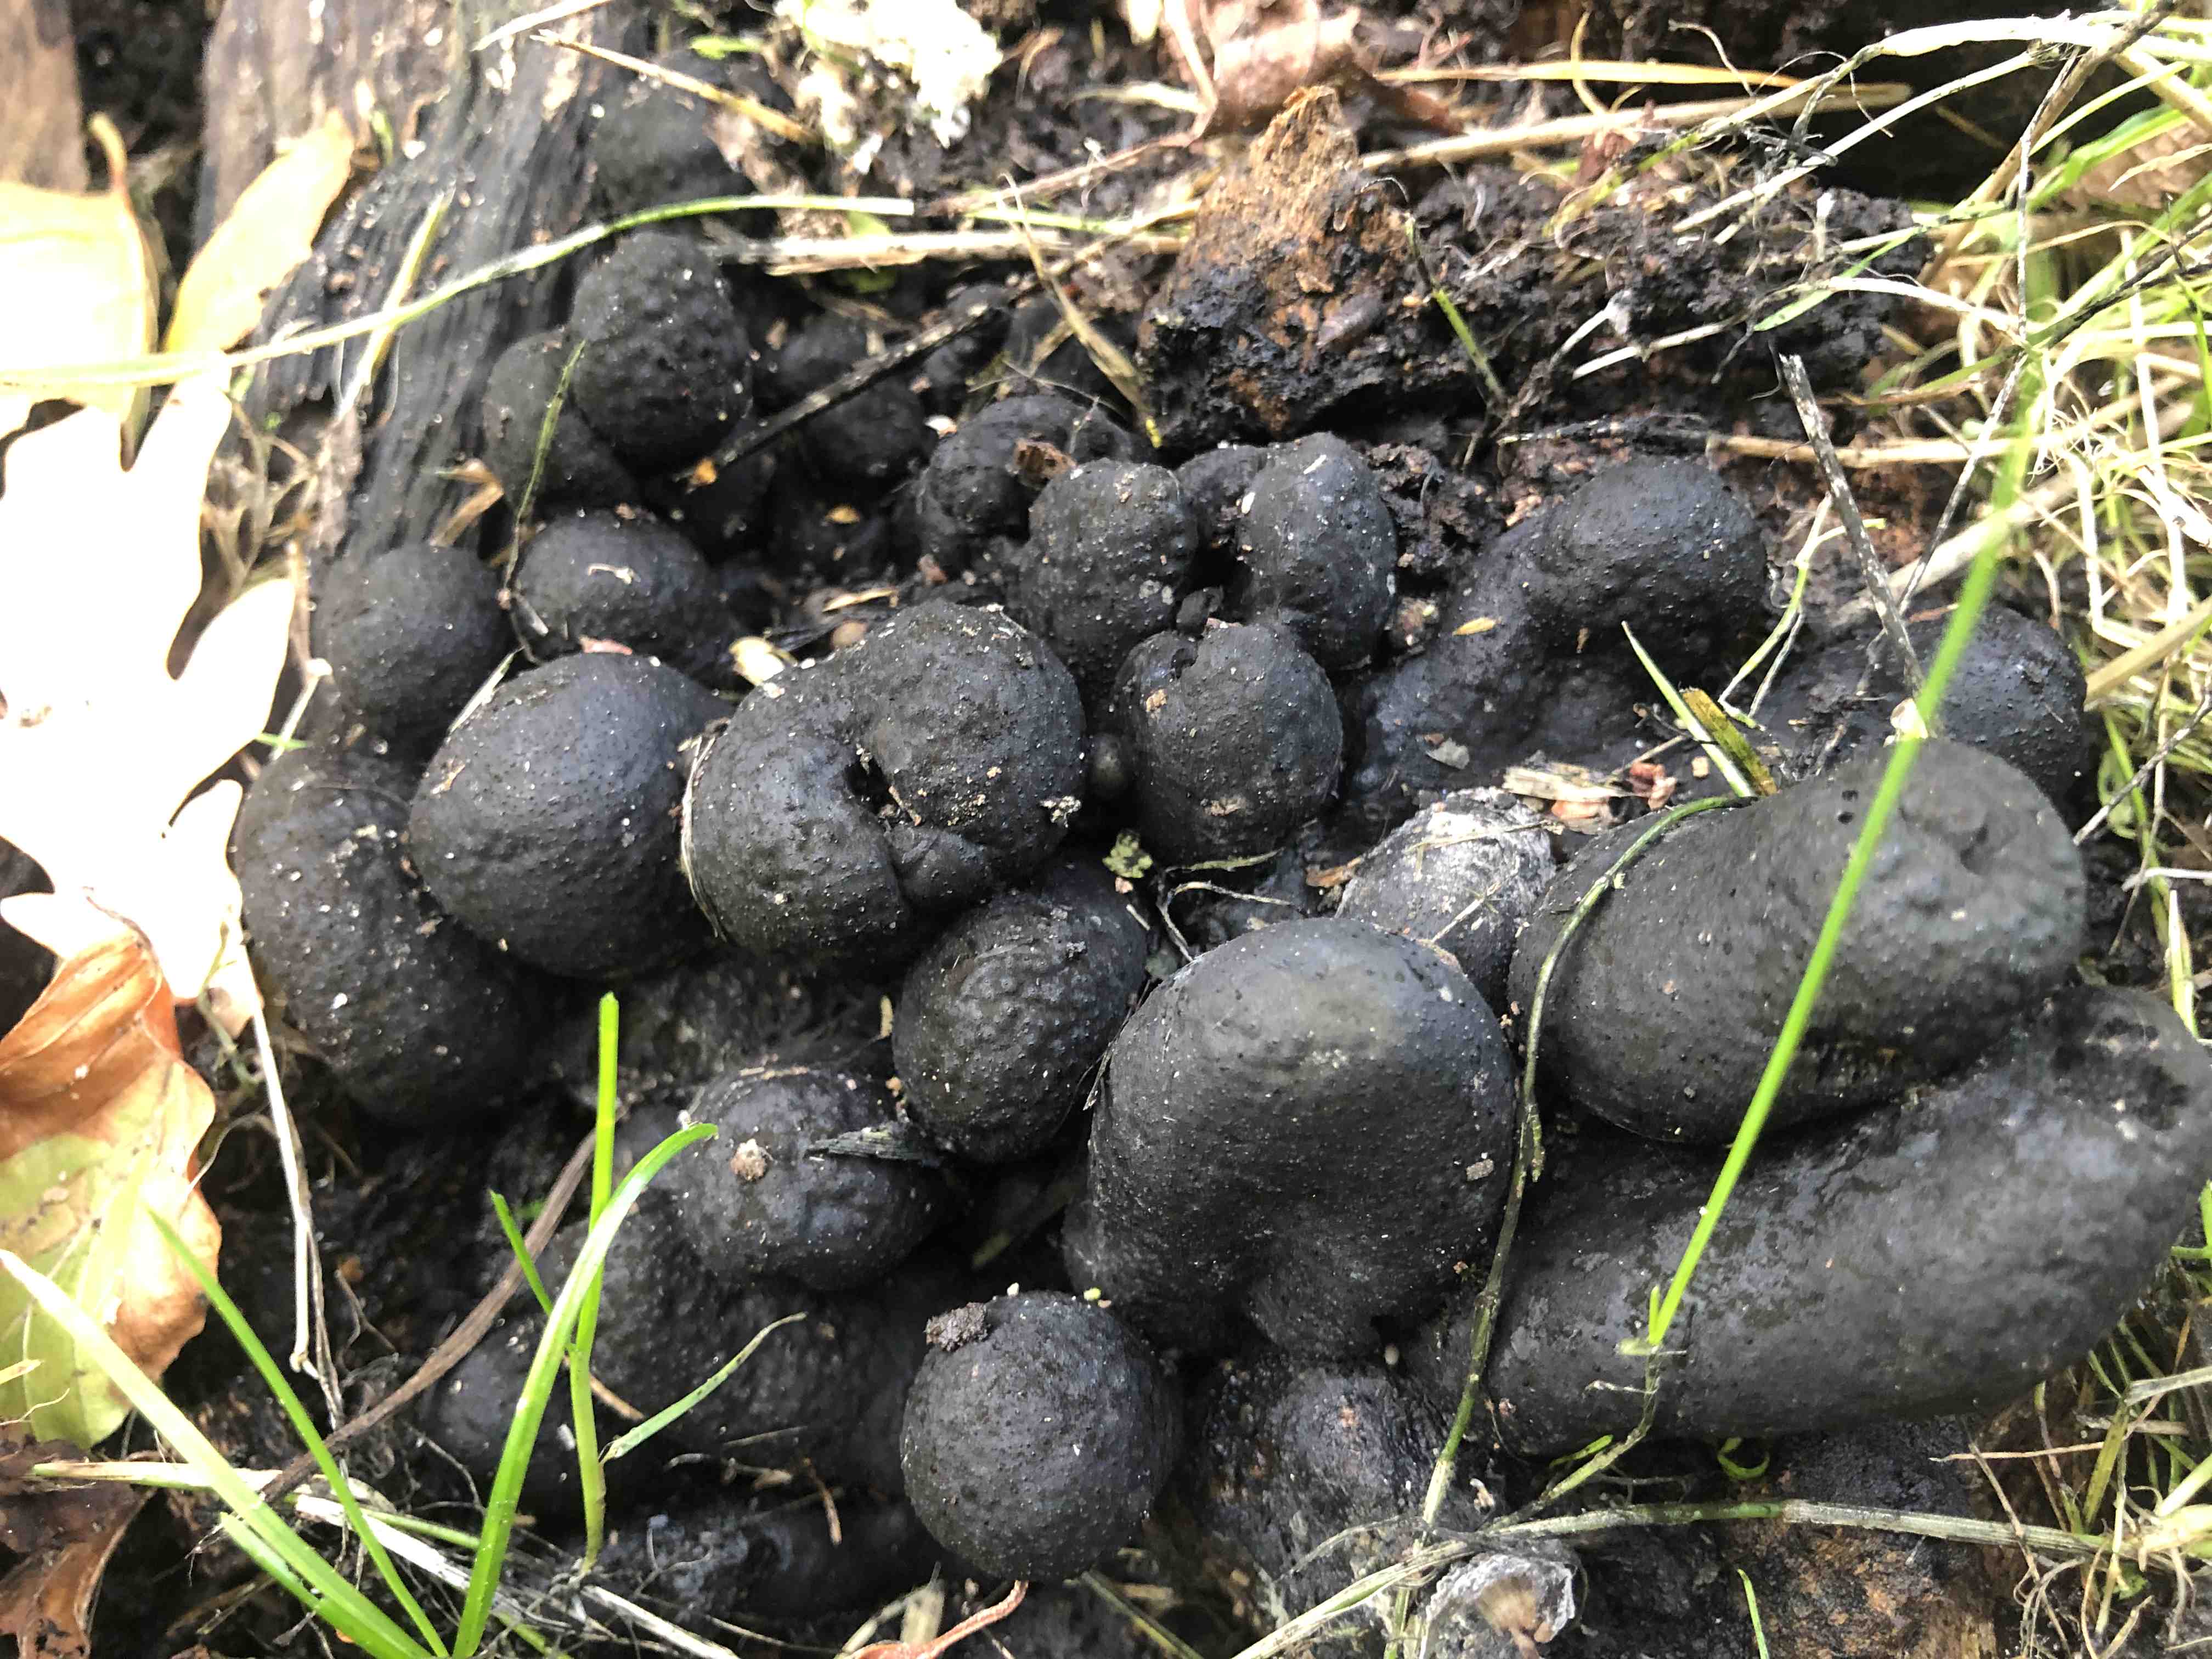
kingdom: Fungi
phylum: Ascomycota
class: Sordariomycetes
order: Xylariales
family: Xylariaceae
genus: Xylaria
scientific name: Xylaria polymorpha
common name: kølle-stødsvamp
